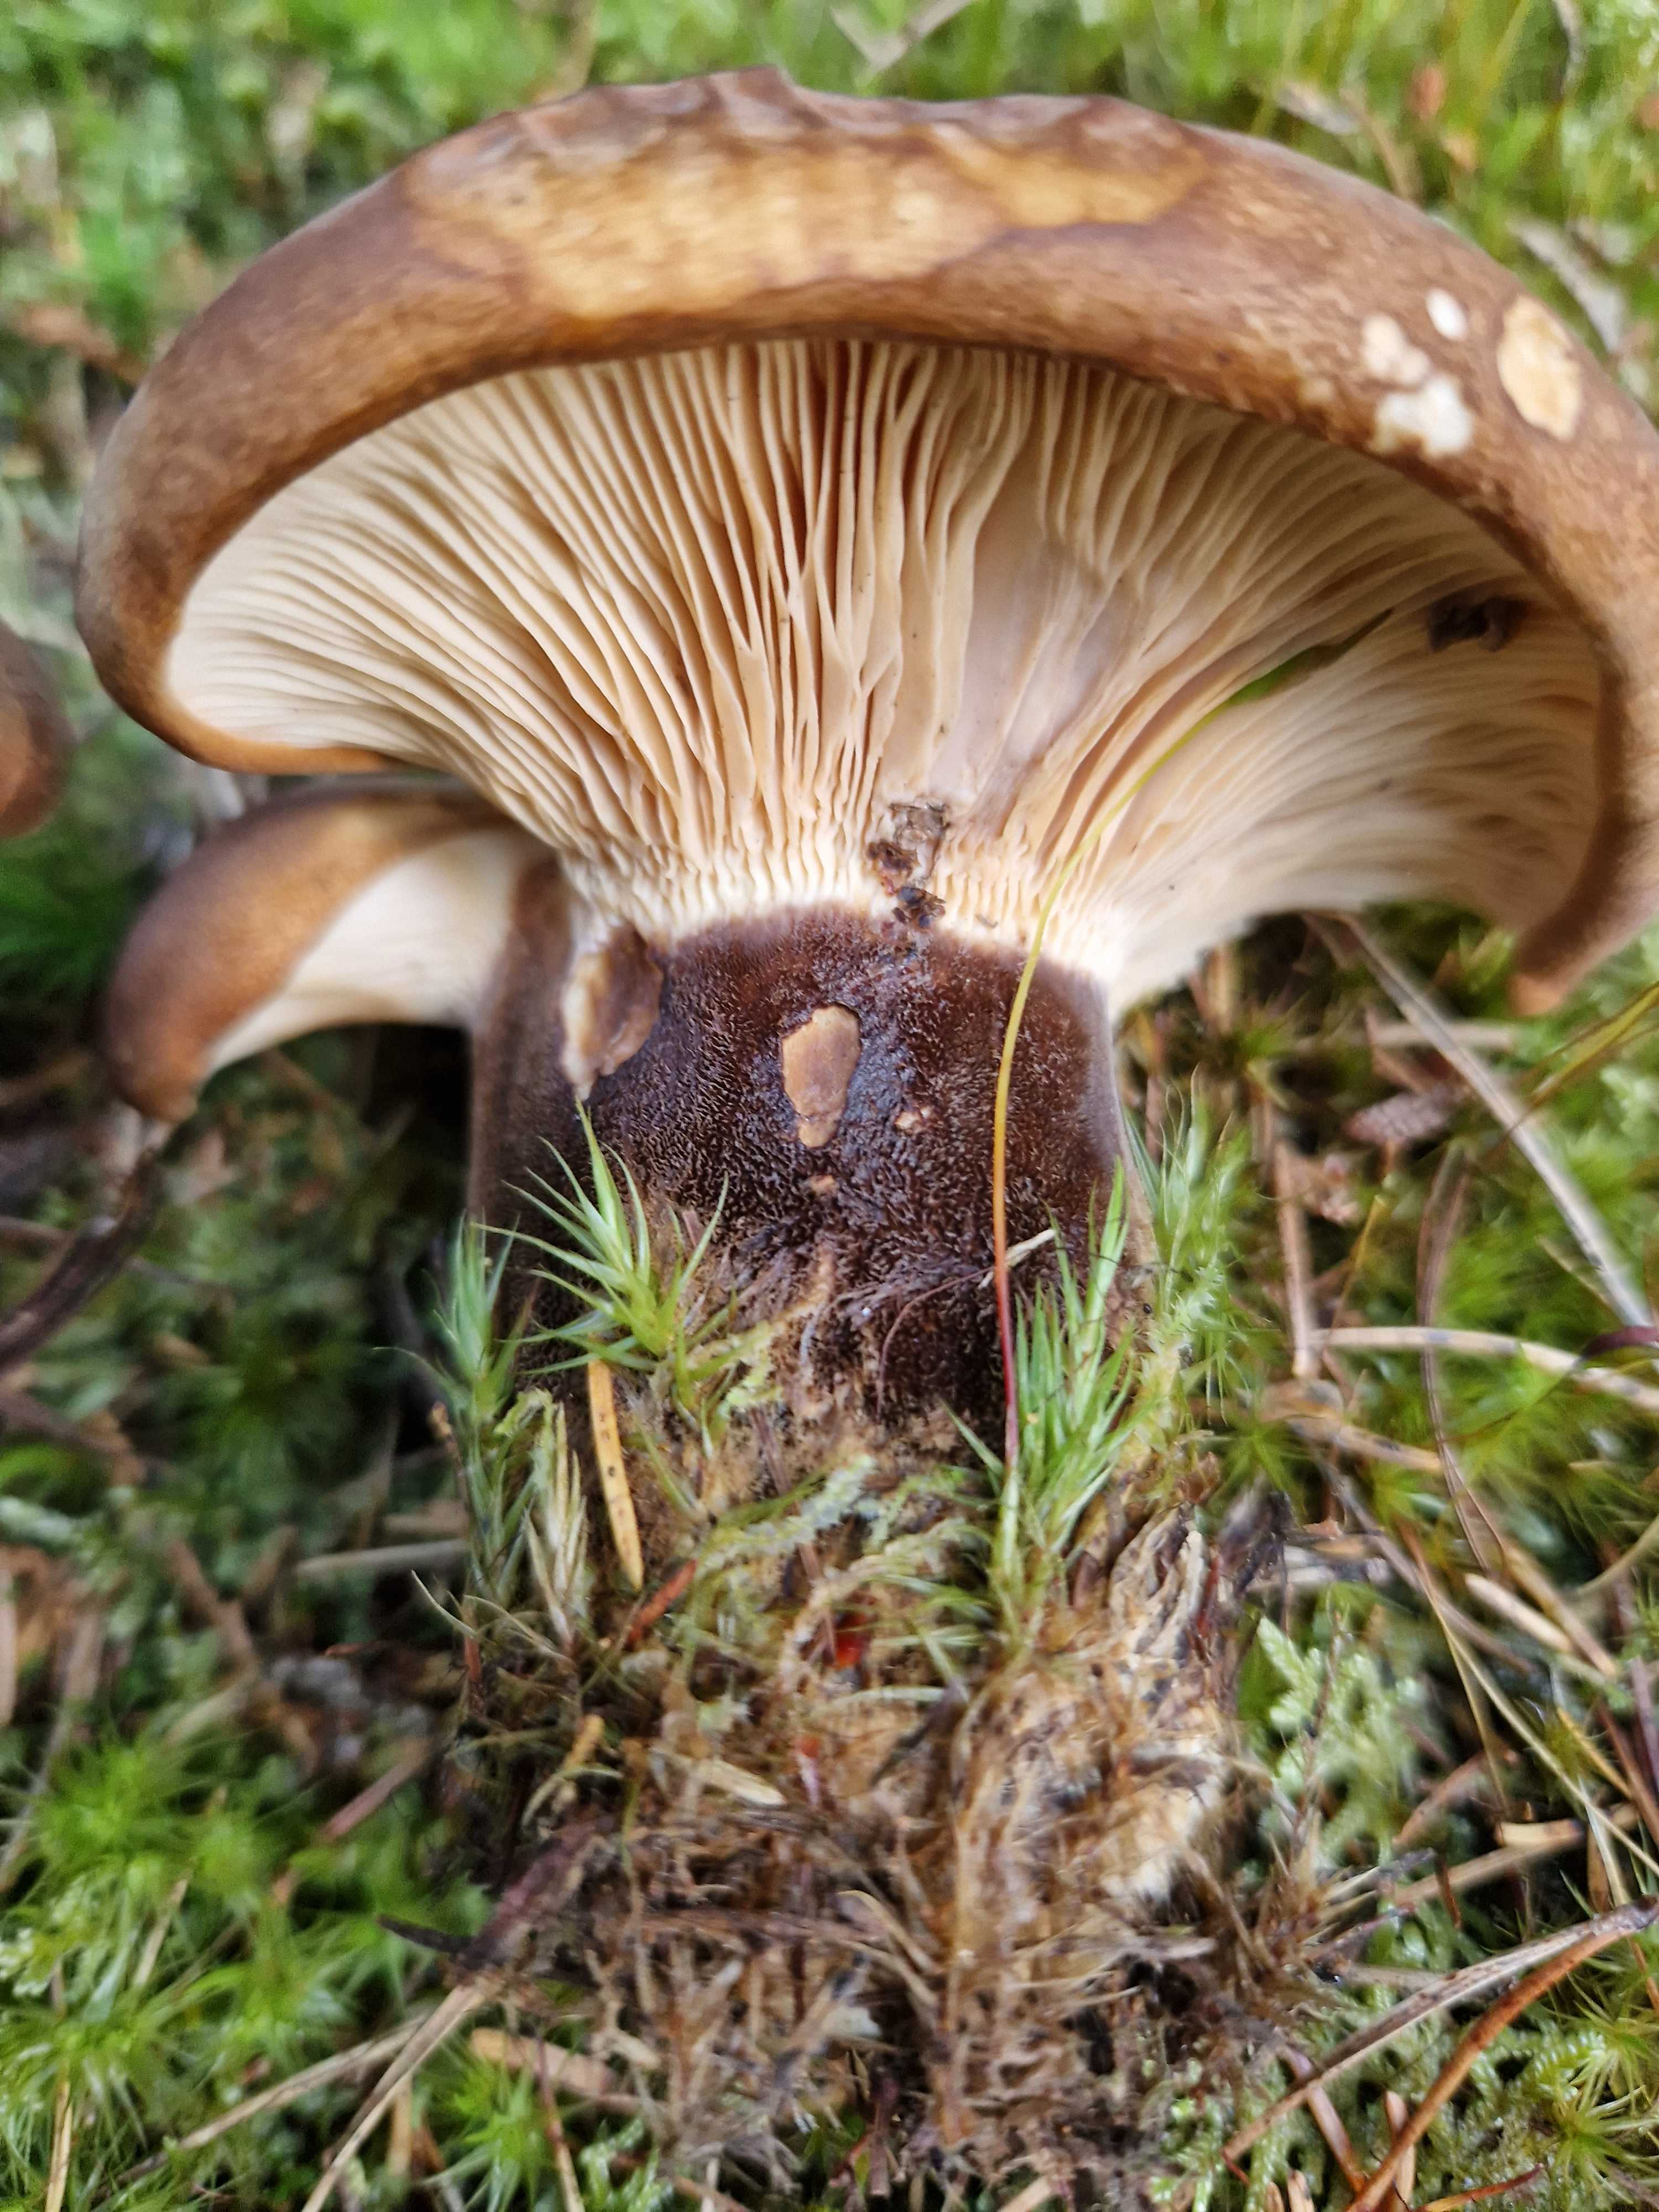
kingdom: Fungi
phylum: Basidiomycota
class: Agaricomycetes
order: Boletales
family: Tapinellaceae
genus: Tapinella
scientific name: Tapinella atrotomentosa
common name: sortfiltet viftesvamp
